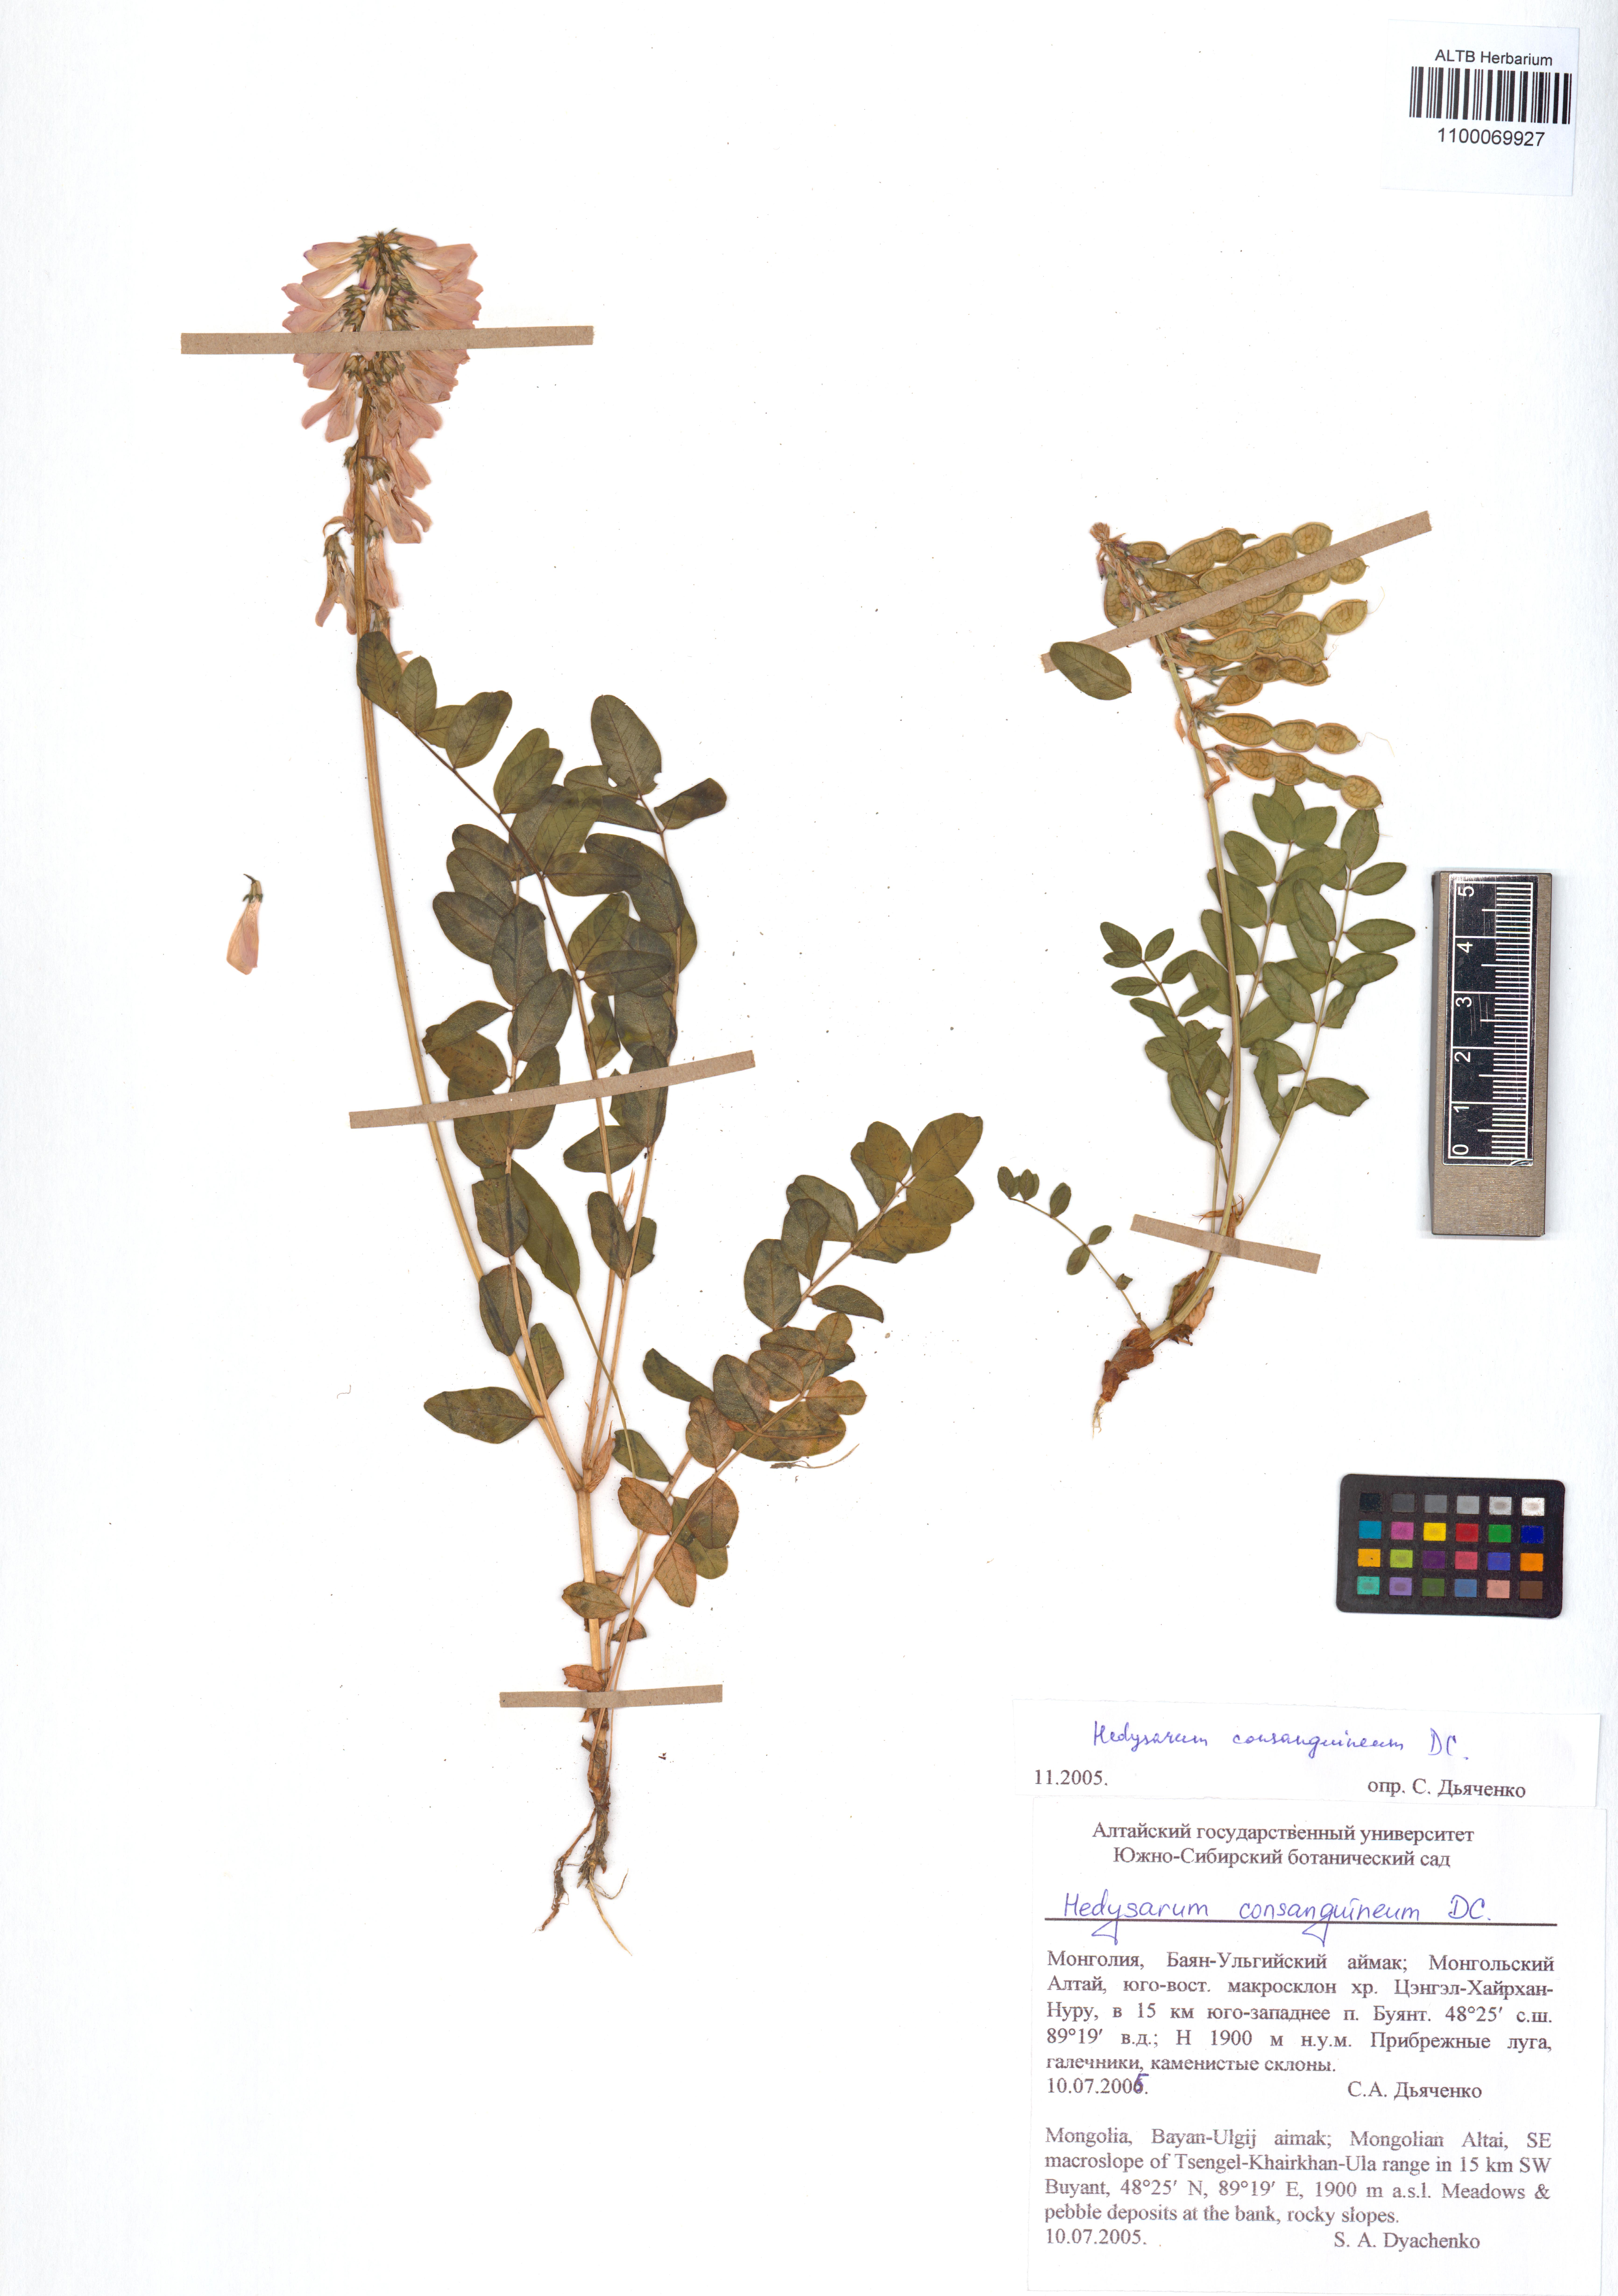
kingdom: Plantae
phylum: Tracheophyta
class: Magnoliopsida
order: Fabales
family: Fabaceae
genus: Hedysarum
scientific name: Hedysarum consanguineum
